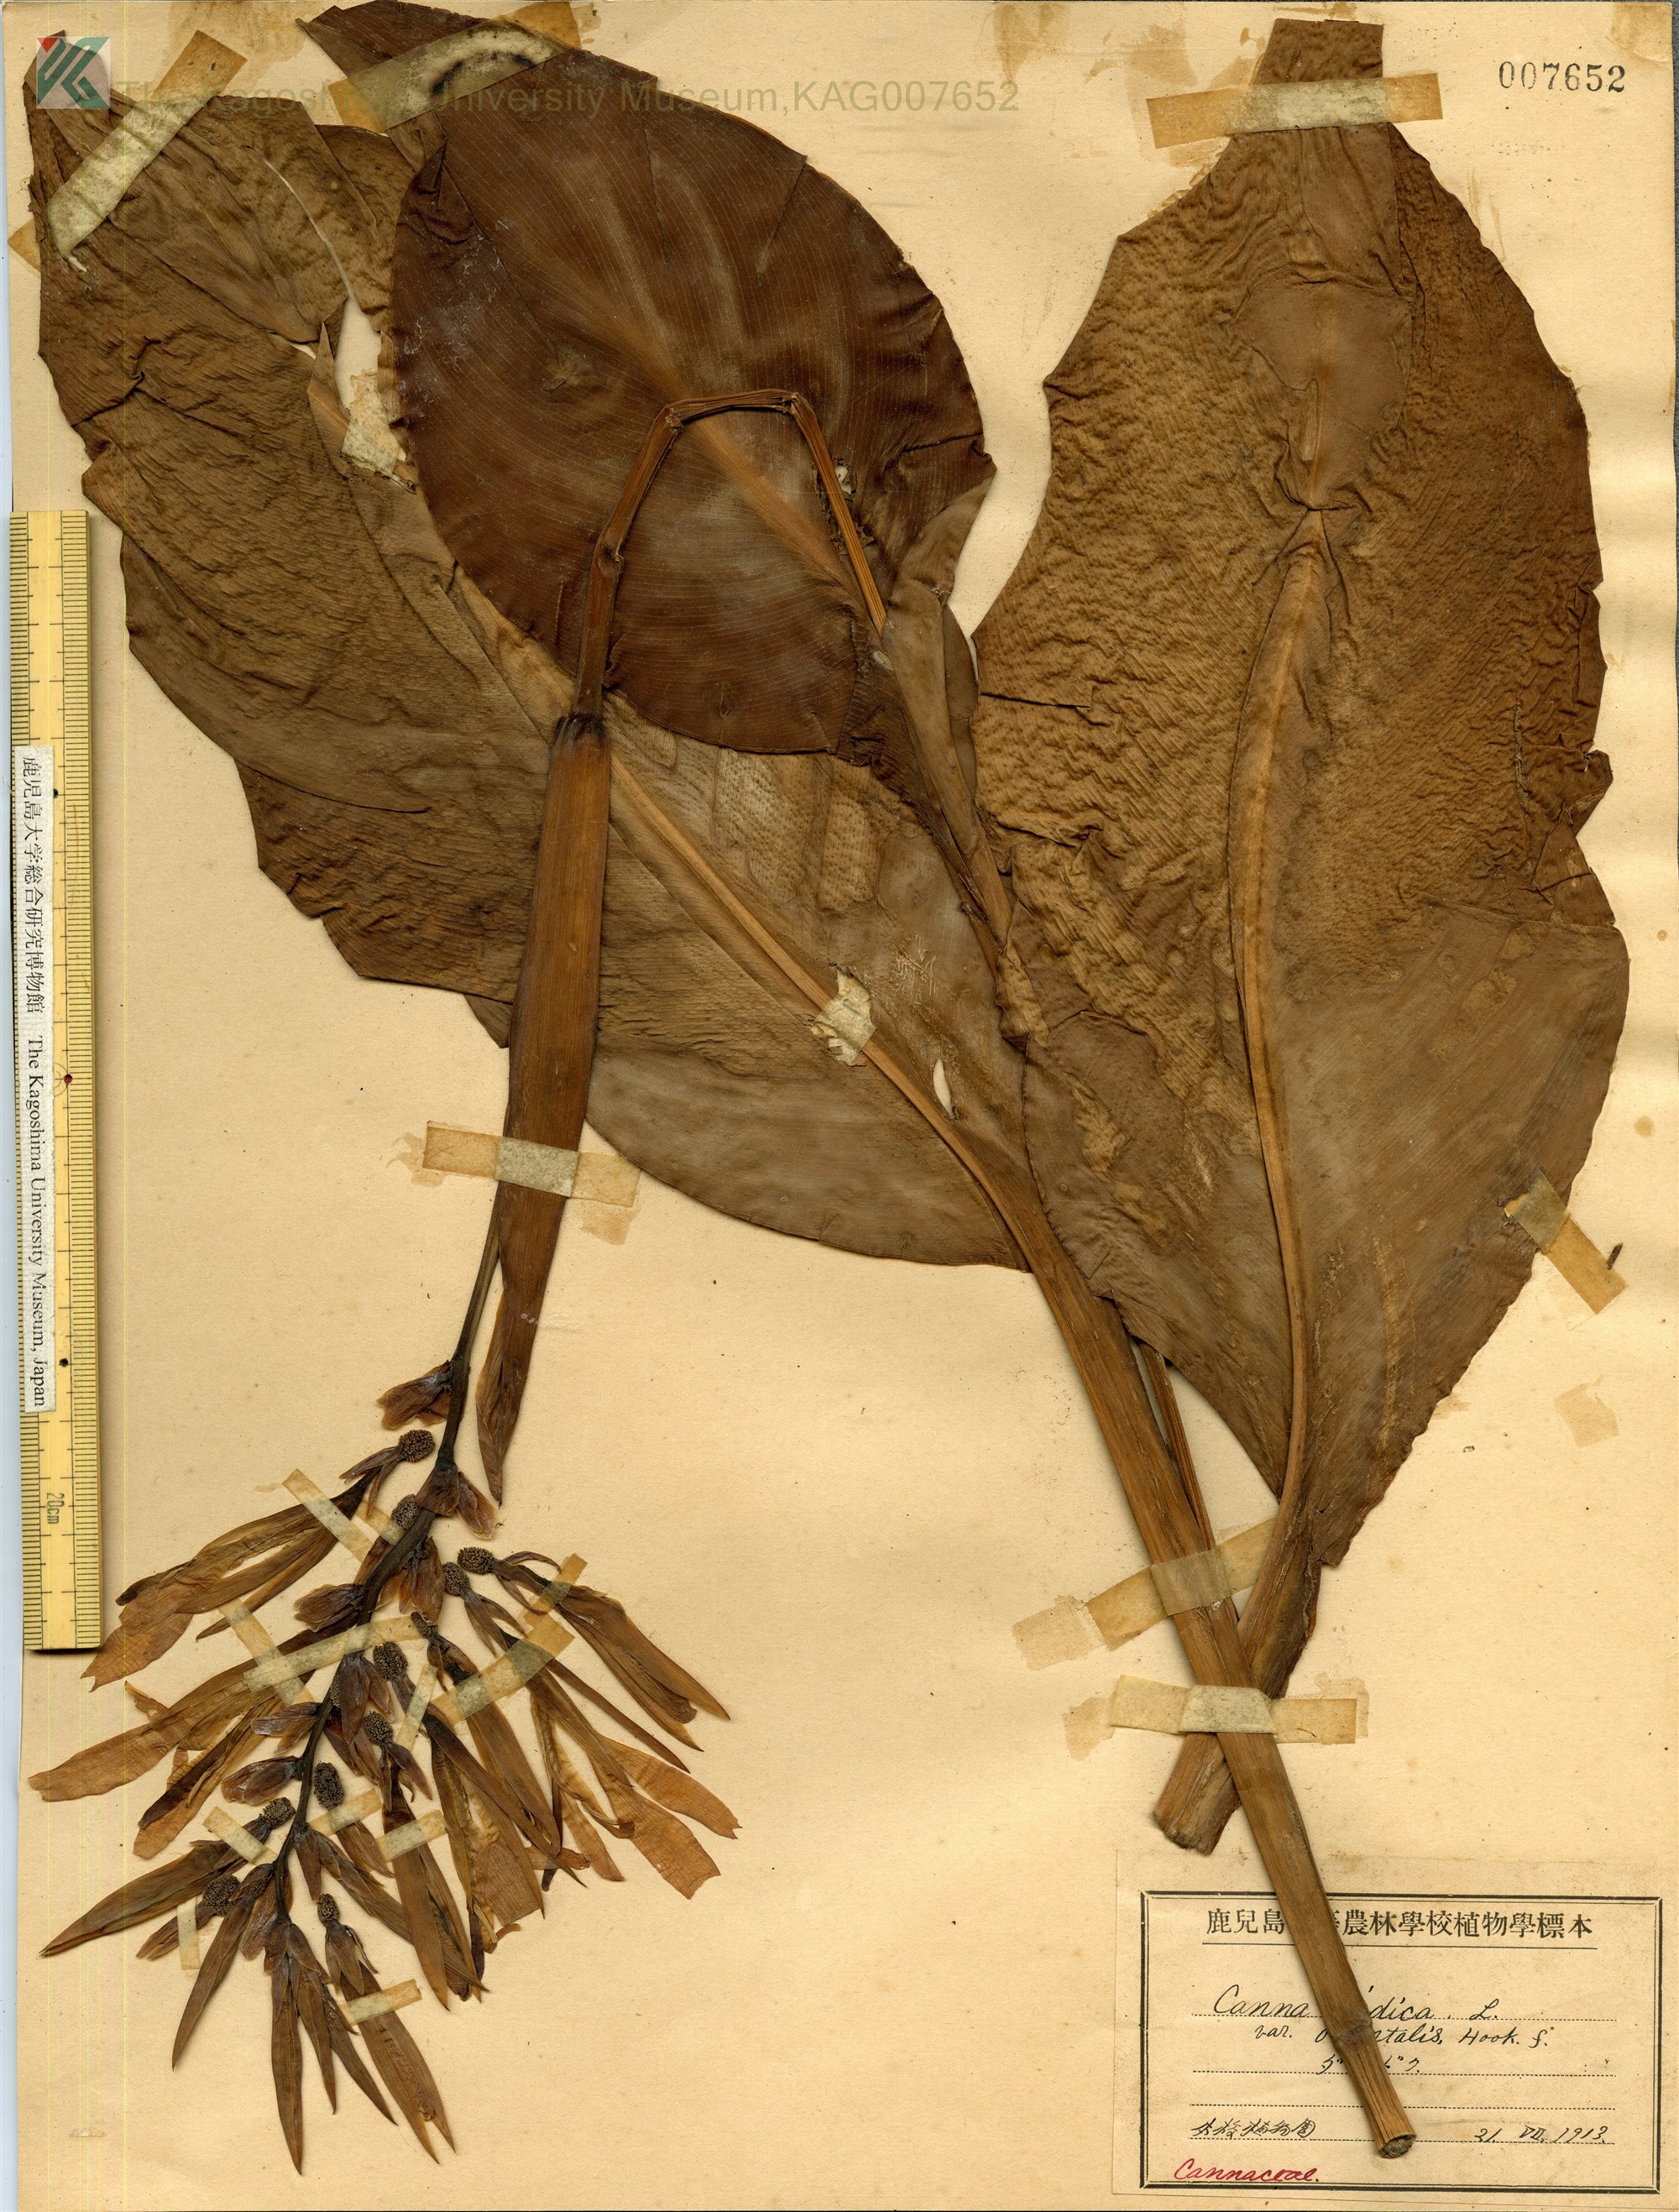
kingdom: Plantae
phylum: Tracheophyta
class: Liliopsida
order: Zingiberales
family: Cannaceae
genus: Canna
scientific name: Canna indica
